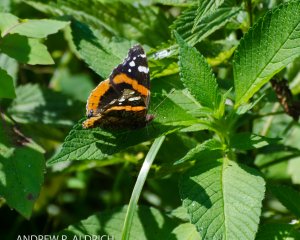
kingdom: Animalia
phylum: Arthropoda
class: Insecta
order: Lepidoptera
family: Nymphalidae
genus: Vanessa
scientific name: Vanessa atalanta
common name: Red Admiral
